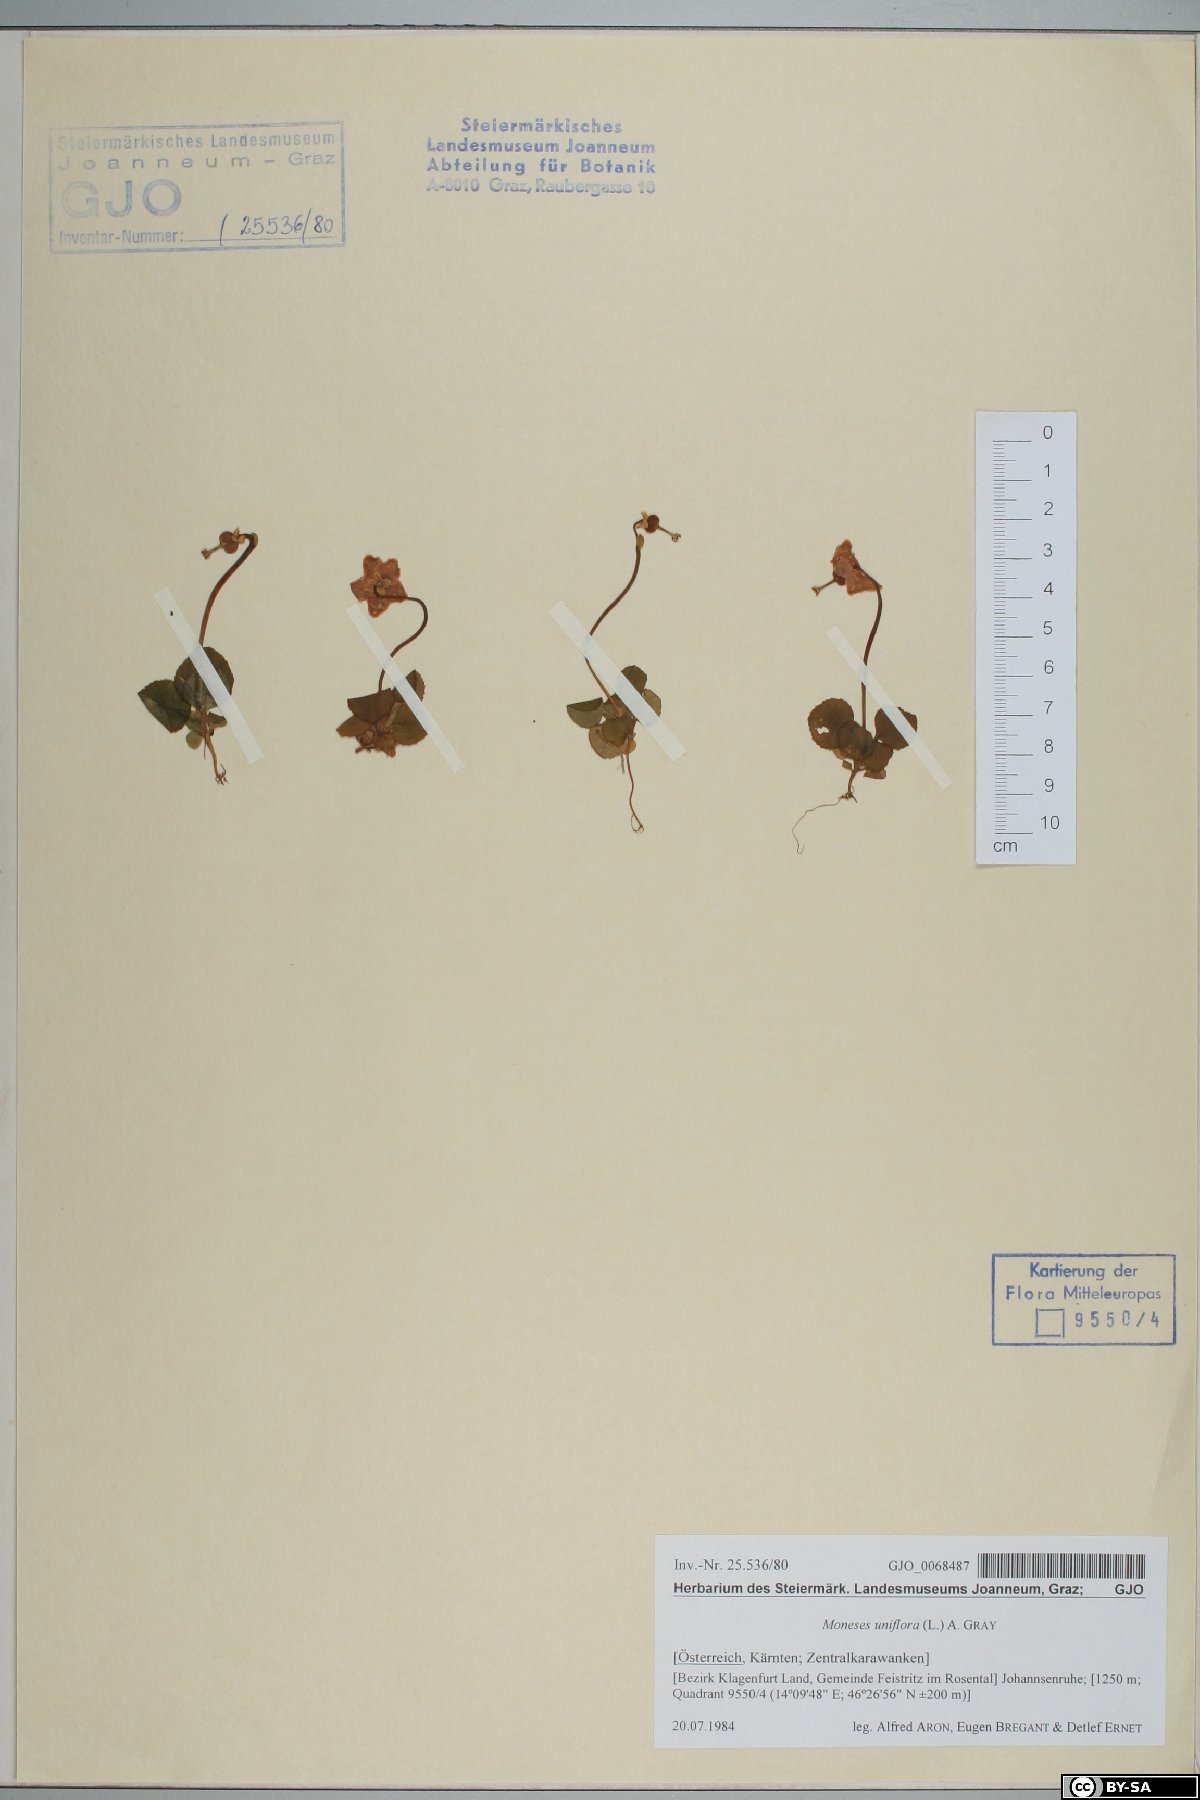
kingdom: Plantae
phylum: Tracheophyta
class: Magnoliopsida
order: Ericales
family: Ericaceae
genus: Moneses
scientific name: Moneses uniflora
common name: One-flowered wintergreen
